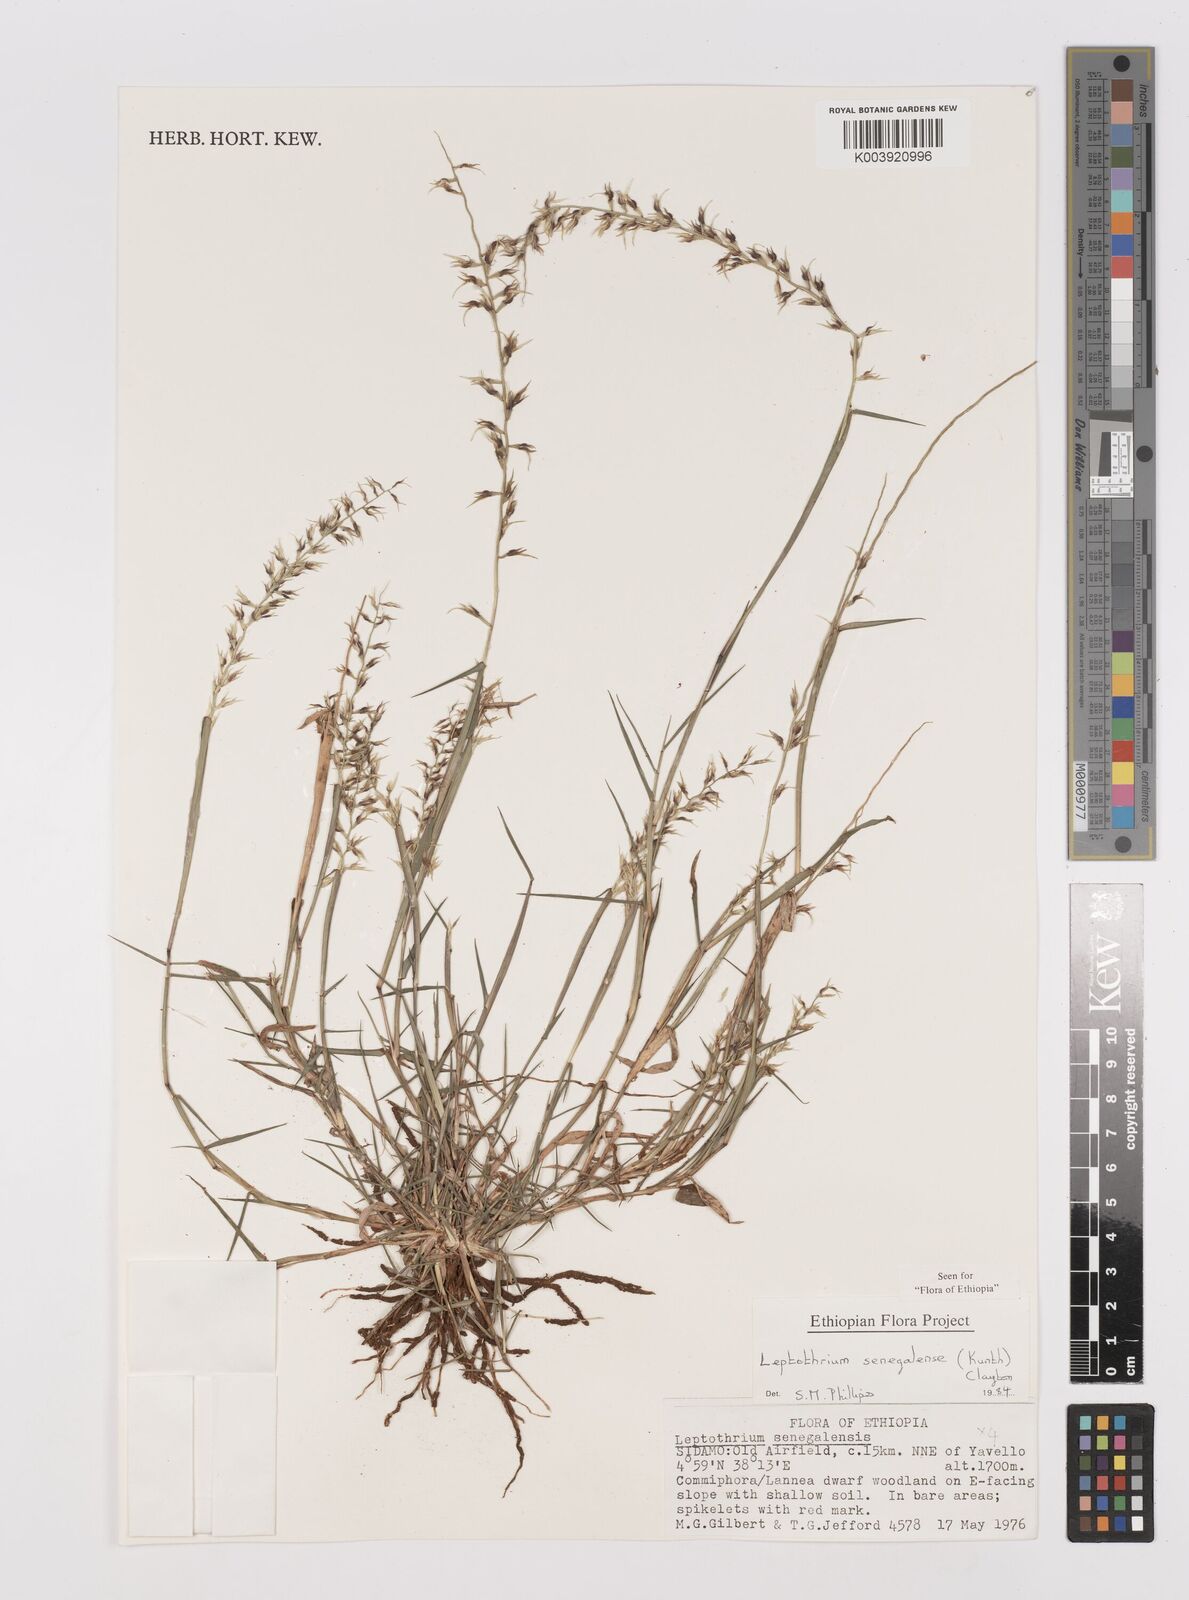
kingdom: Plantae
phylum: Tracheophyta
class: Liliopsida
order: Poales
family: Poaceae
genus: Leptothrium
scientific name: Leptothrium senegalense
